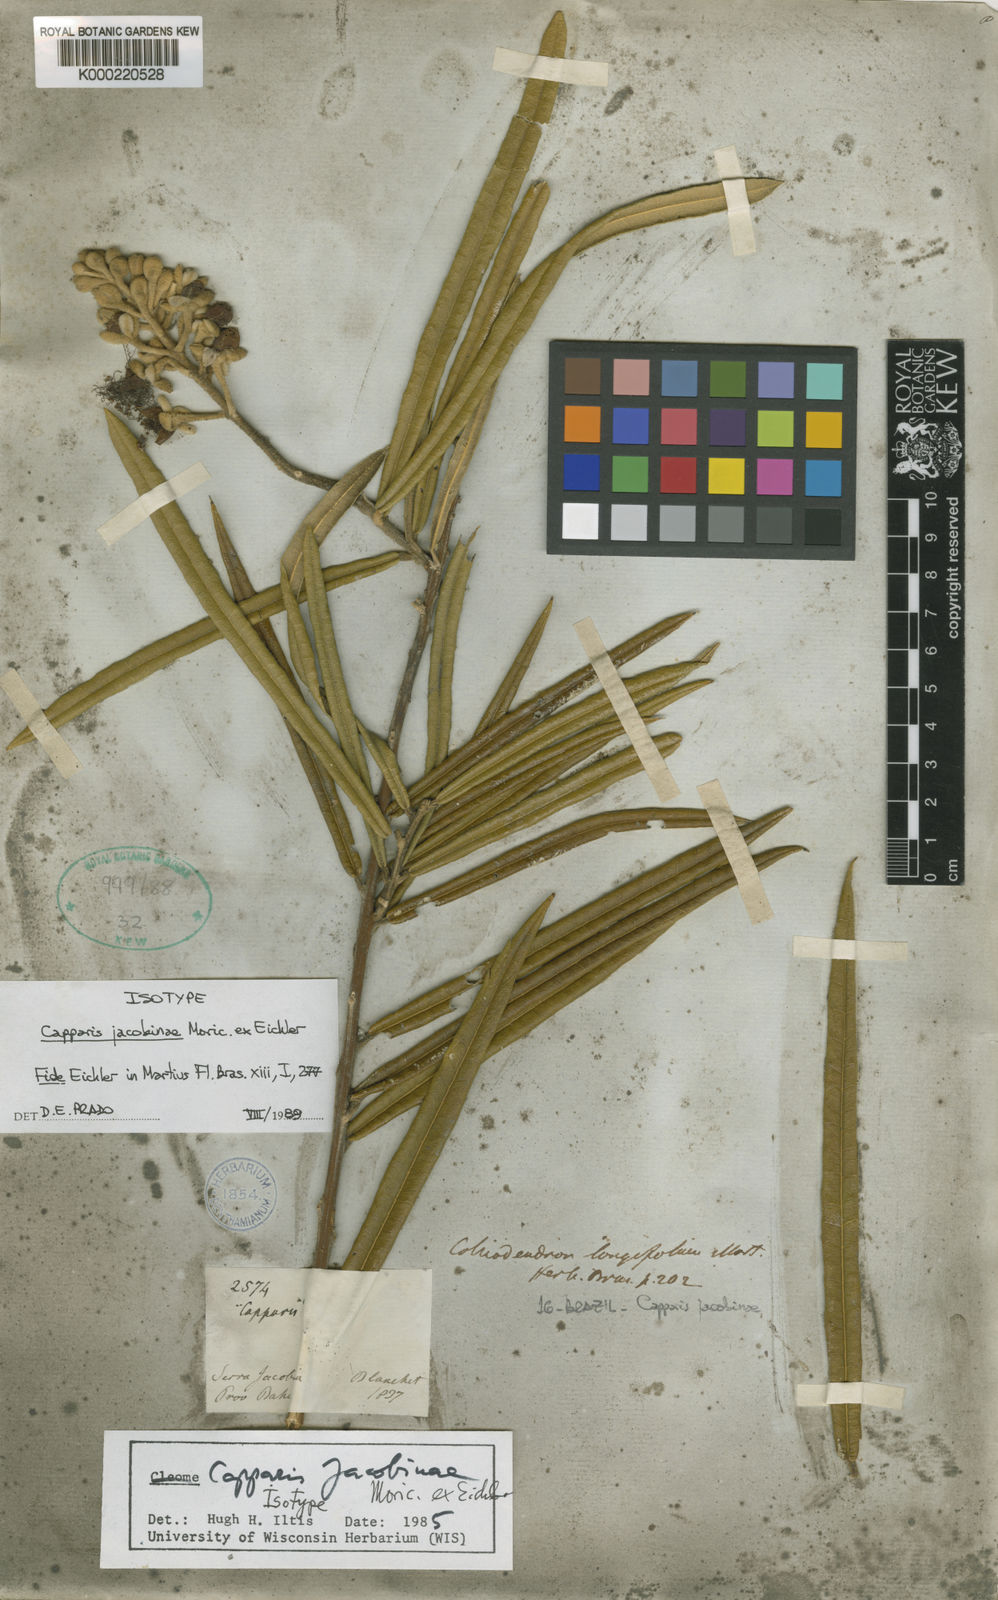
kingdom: Plantae
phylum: Tracheophyta
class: Magnoliopsida
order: Brassicales
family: Capparaceae
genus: Neocalyptrocalyx
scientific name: Neocalyptrocalyx longifolium
